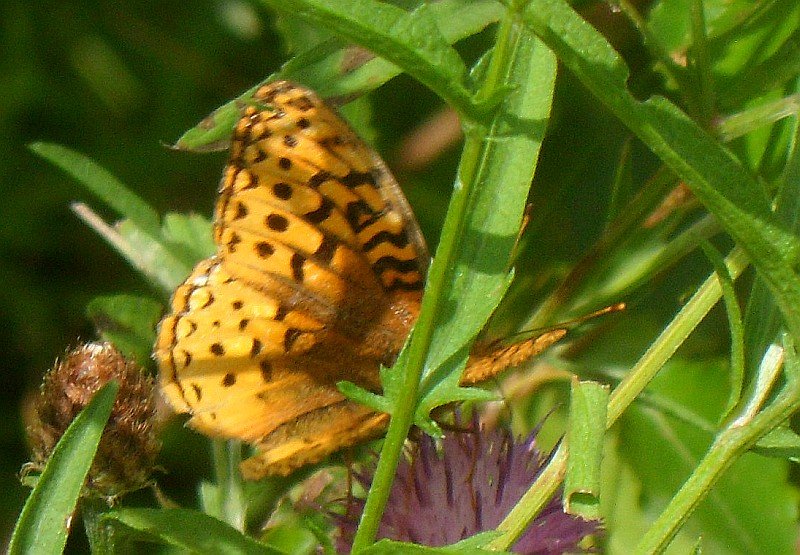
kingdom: Animalia
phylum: Arthropoda
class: Insecta
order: Lepidoptera
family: Nymphalidae
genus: Speyeria
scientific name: Speyeria cybele
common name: Great Spangled Fritillary
